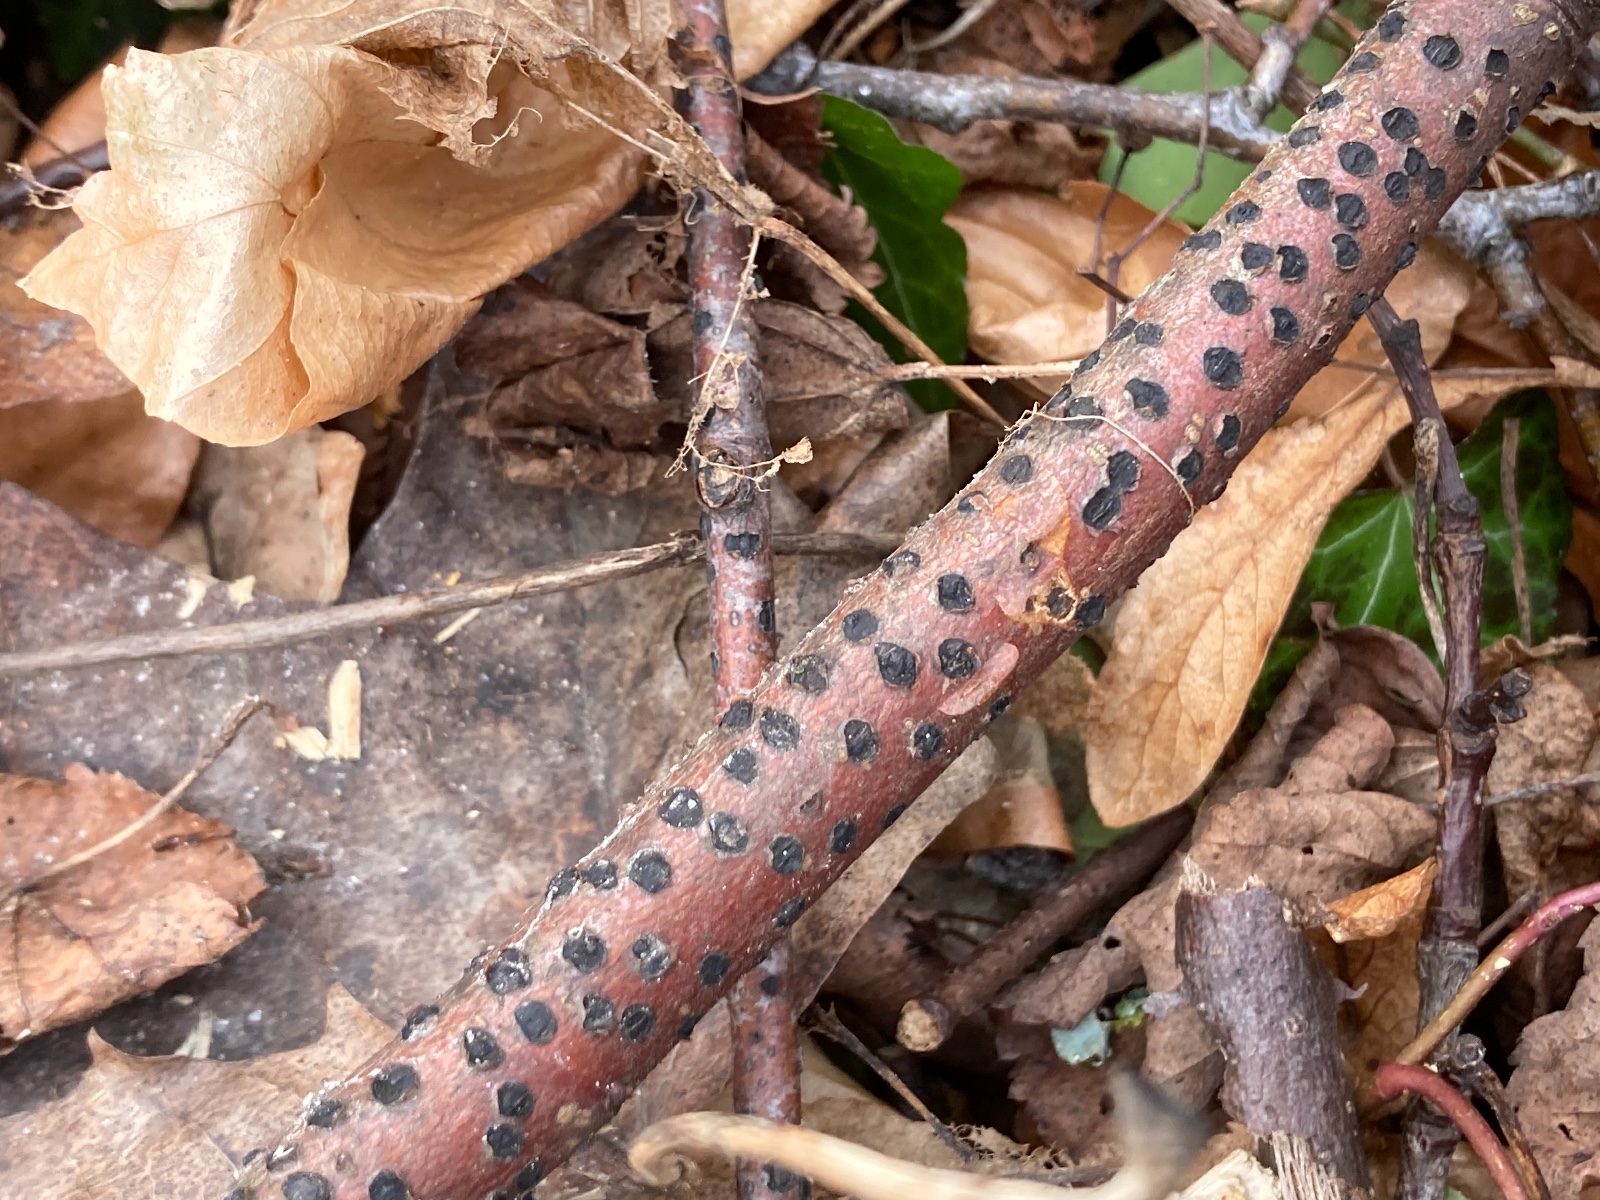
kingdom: Fungi
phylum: Ascomycota
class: Sordariomycetes
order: Xylariales
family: Diatrypaceae
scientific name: Diatrypaceae
